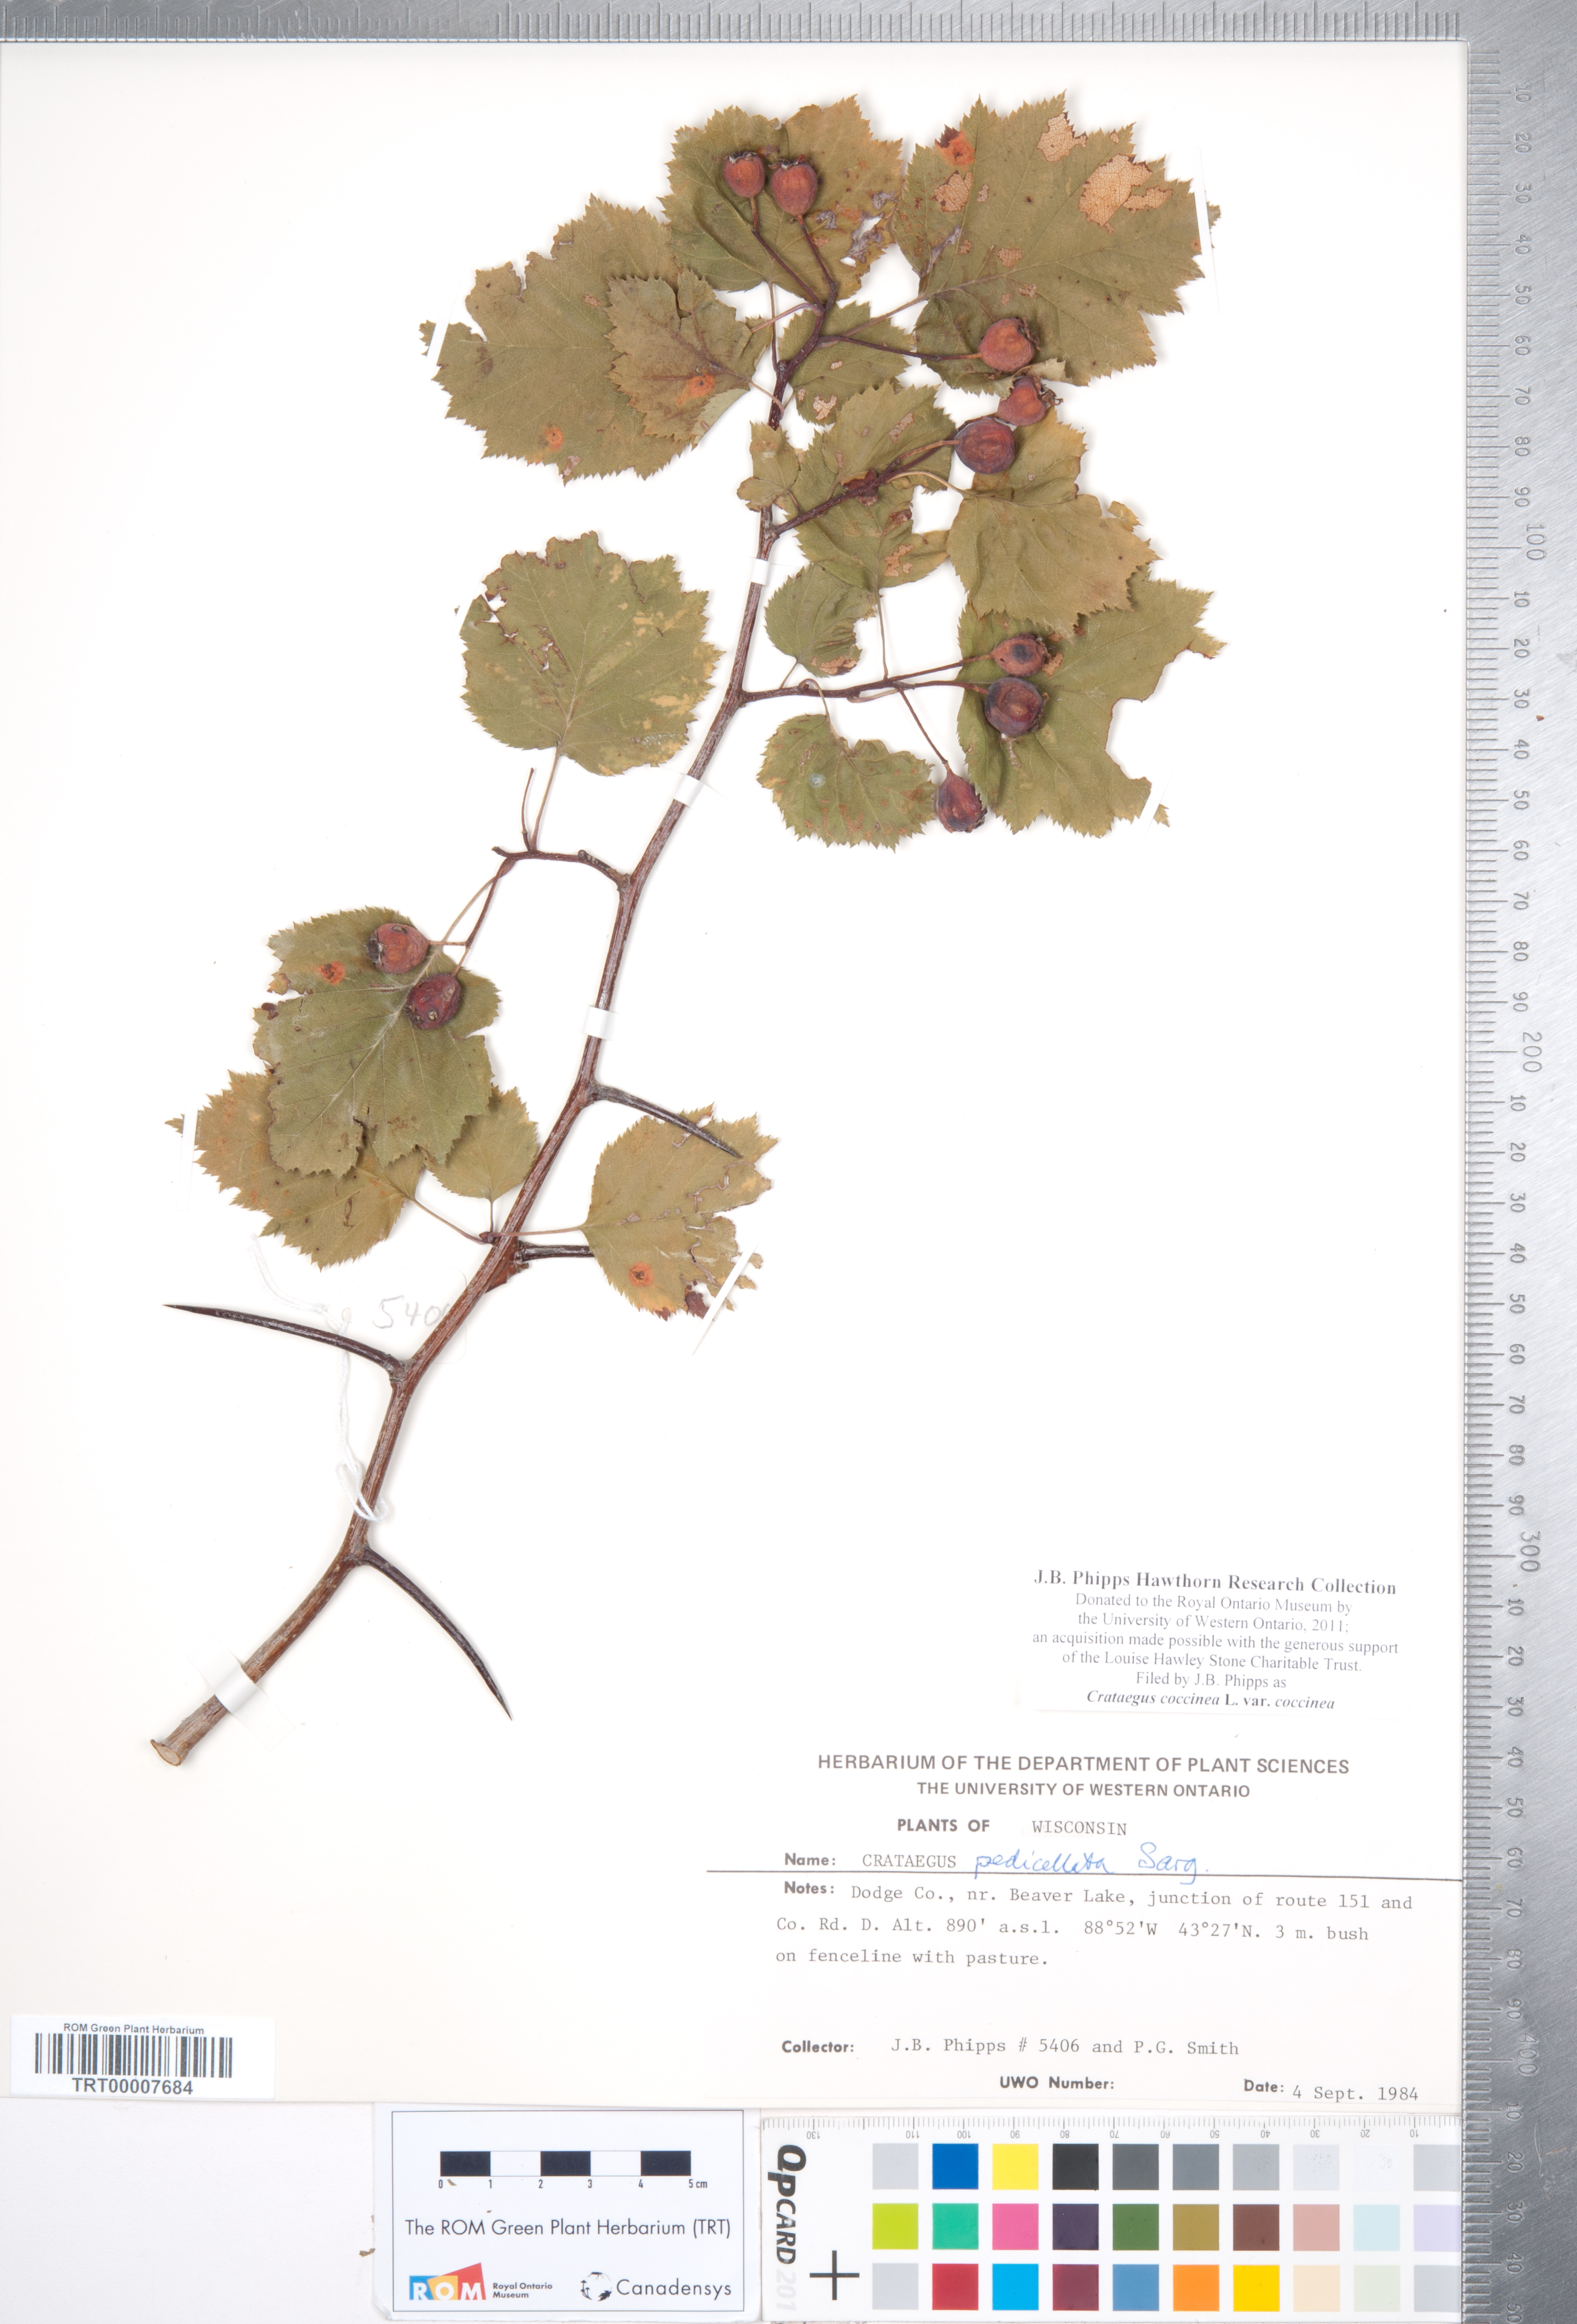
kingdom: Plantae
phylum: Tracheophyta
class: Magnoliopsida
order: Rosales
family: Rosaceae
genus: Crataegus
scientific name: Crataegus coccinea
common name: Scarlet hawthorn
